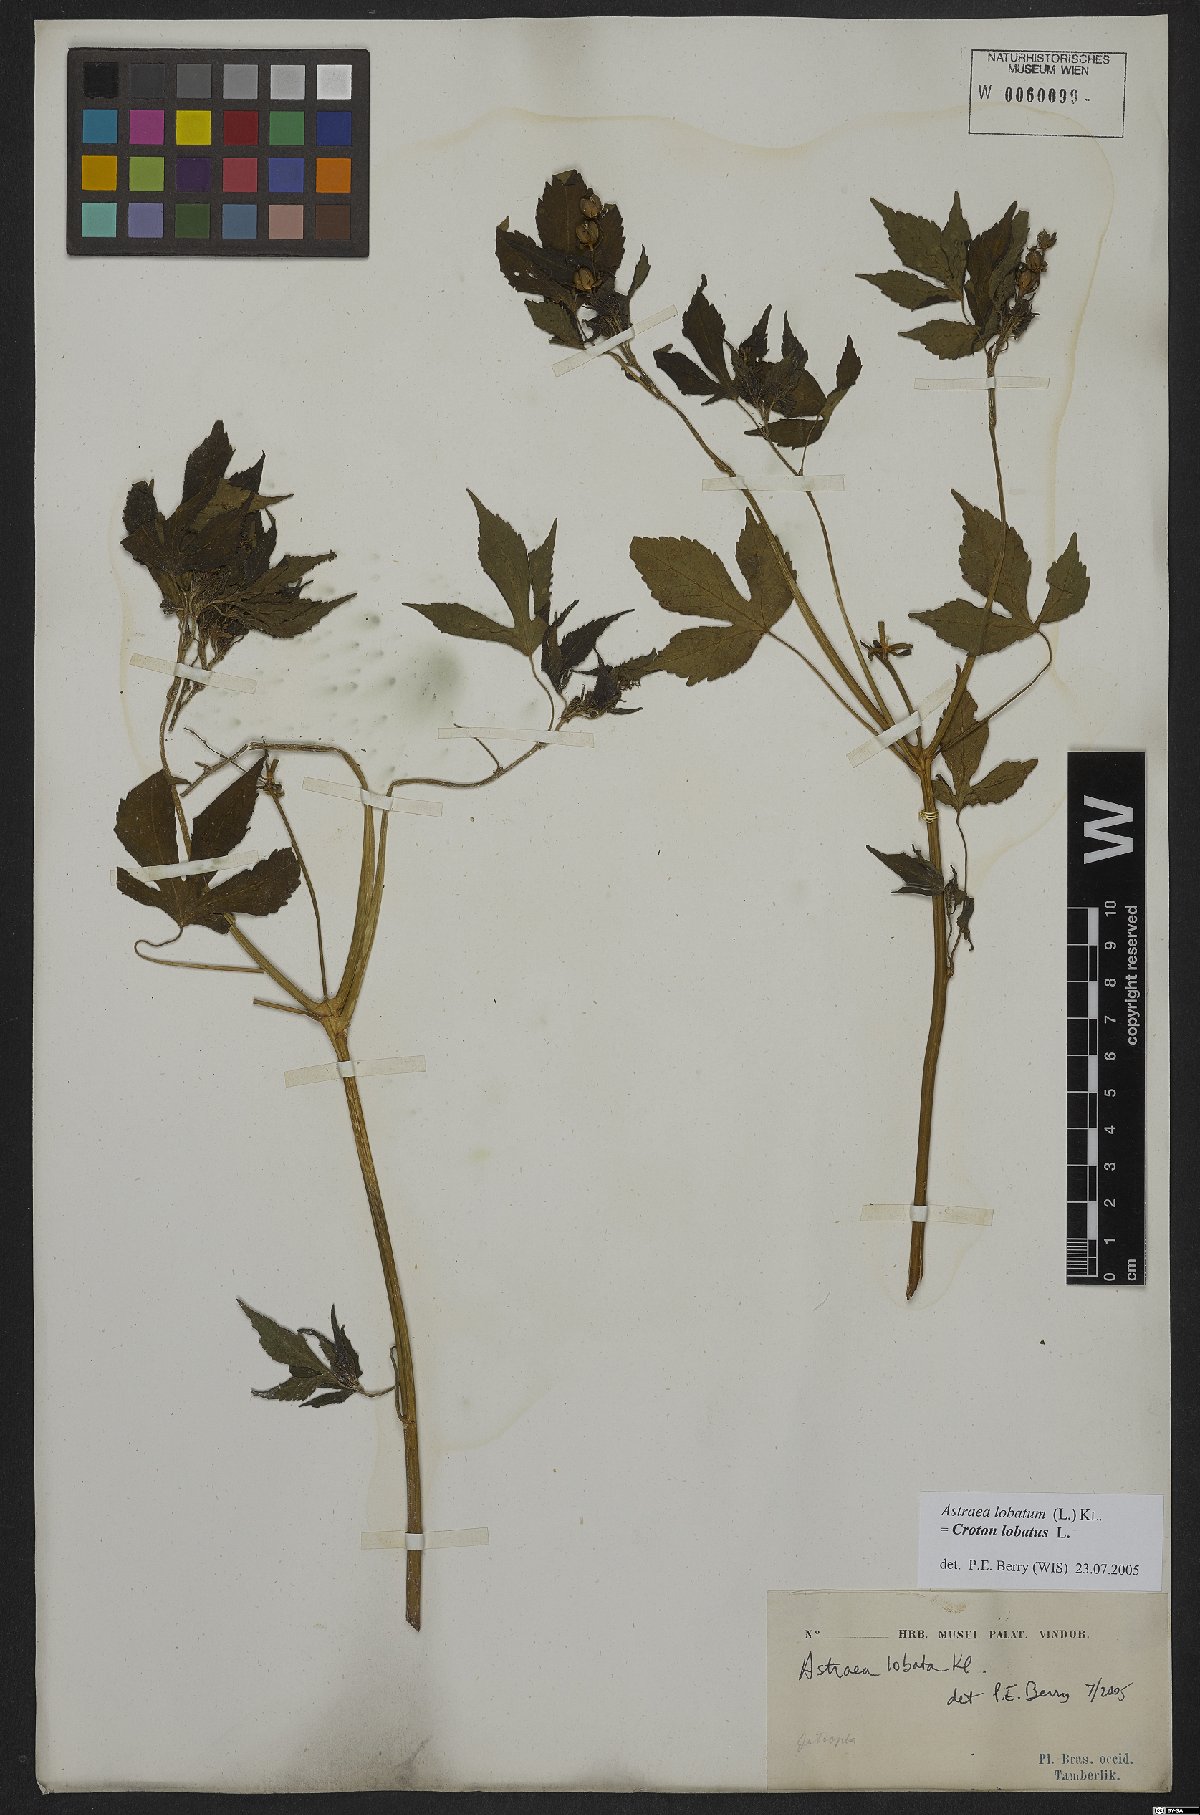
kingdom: Plantae
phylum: Tracheophyta
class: Magnoliopsida
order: Malpighiales
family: Euphorbiaceae
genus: Croton
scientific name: Croton lobatus
